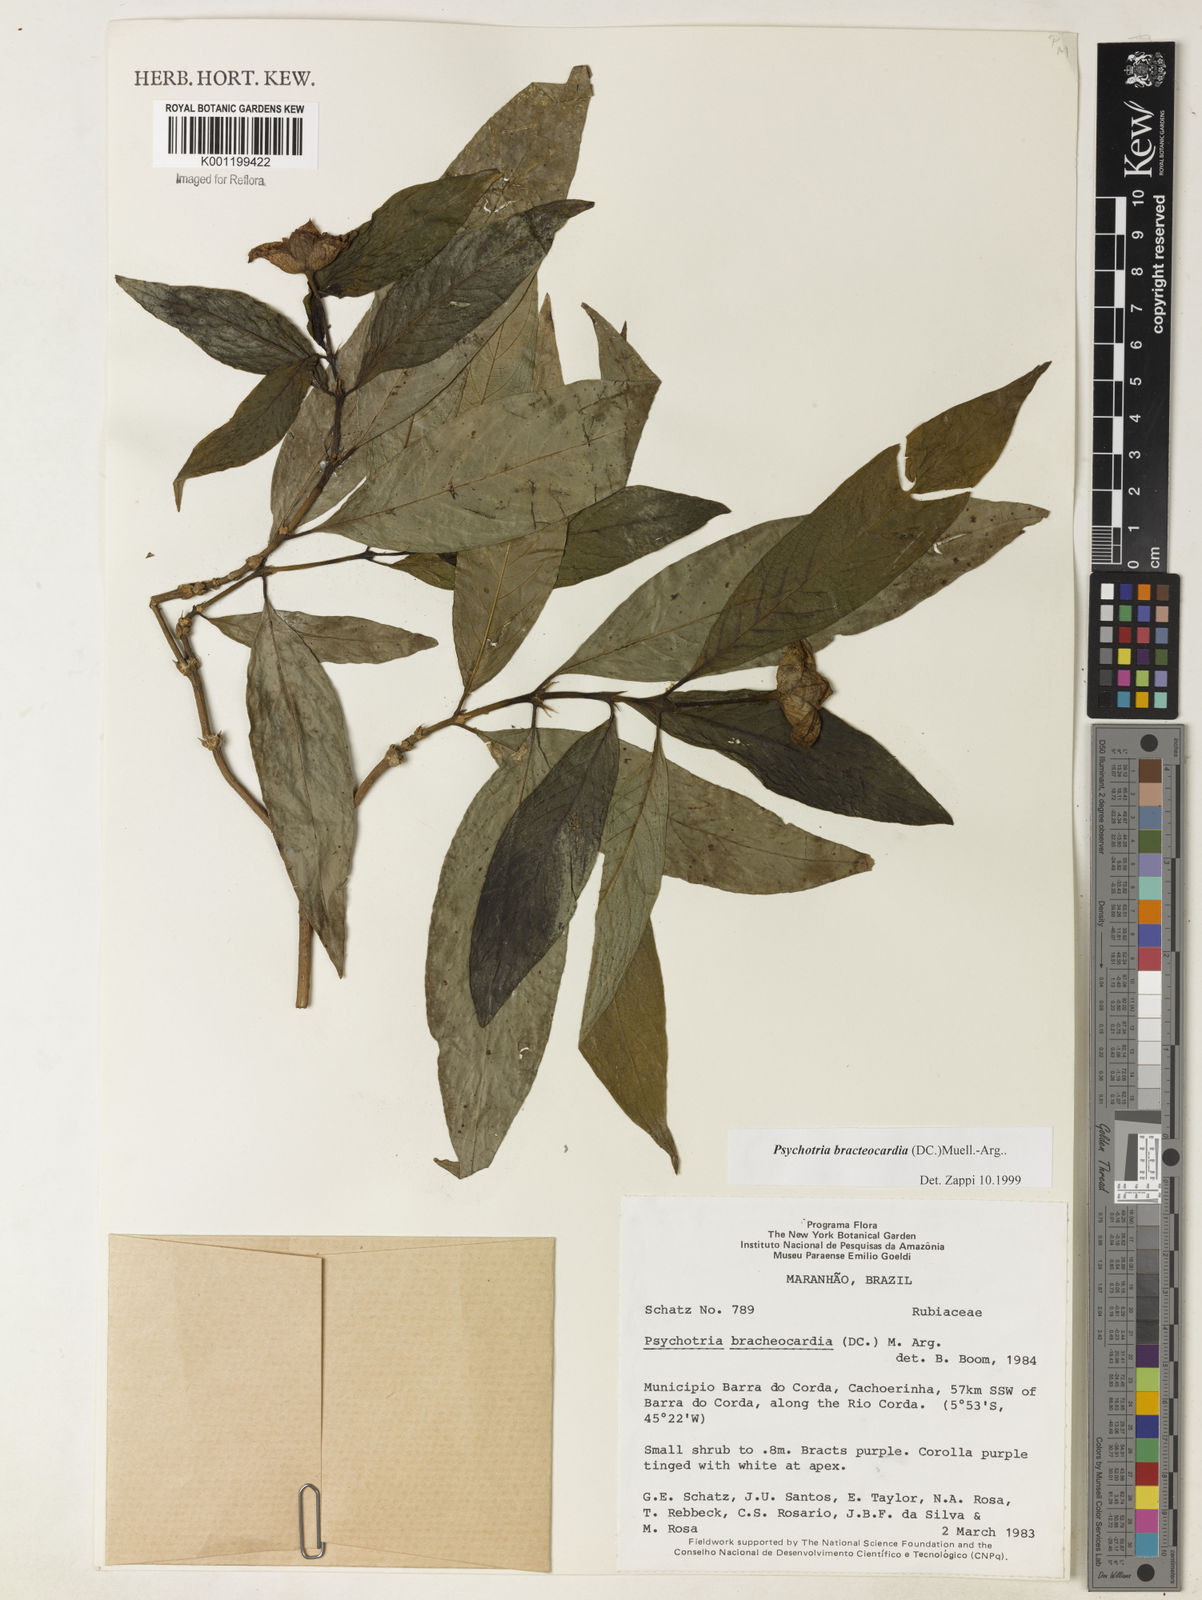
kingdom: Plantae
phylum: Tracheophyta
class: Magnoliopsida
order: Gentianales
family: Rubiaceae
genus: Psychotria
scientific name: Psychotria
